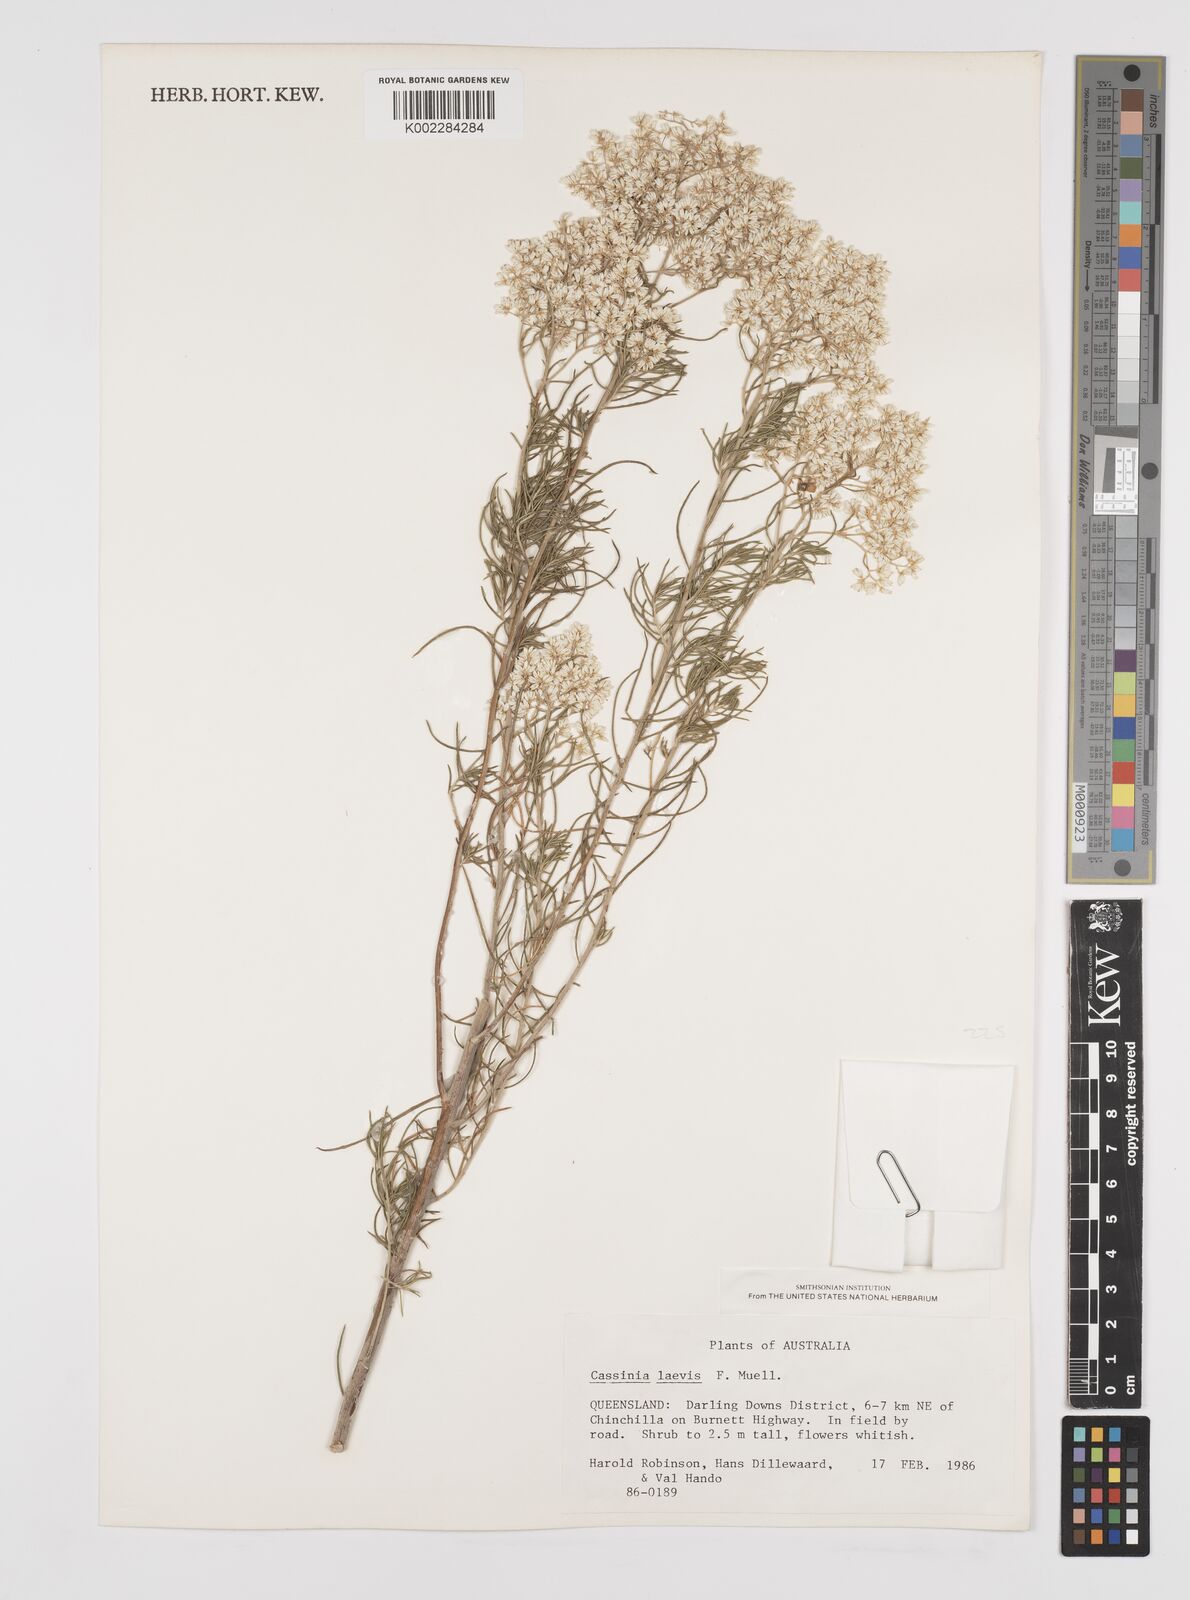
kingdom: Plantae
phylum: Tracheophyta
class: Magnoliopsida
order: Asterales
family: Asteraceae
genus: Cassinia
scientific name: Cassinia laevis
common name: Coughbush
